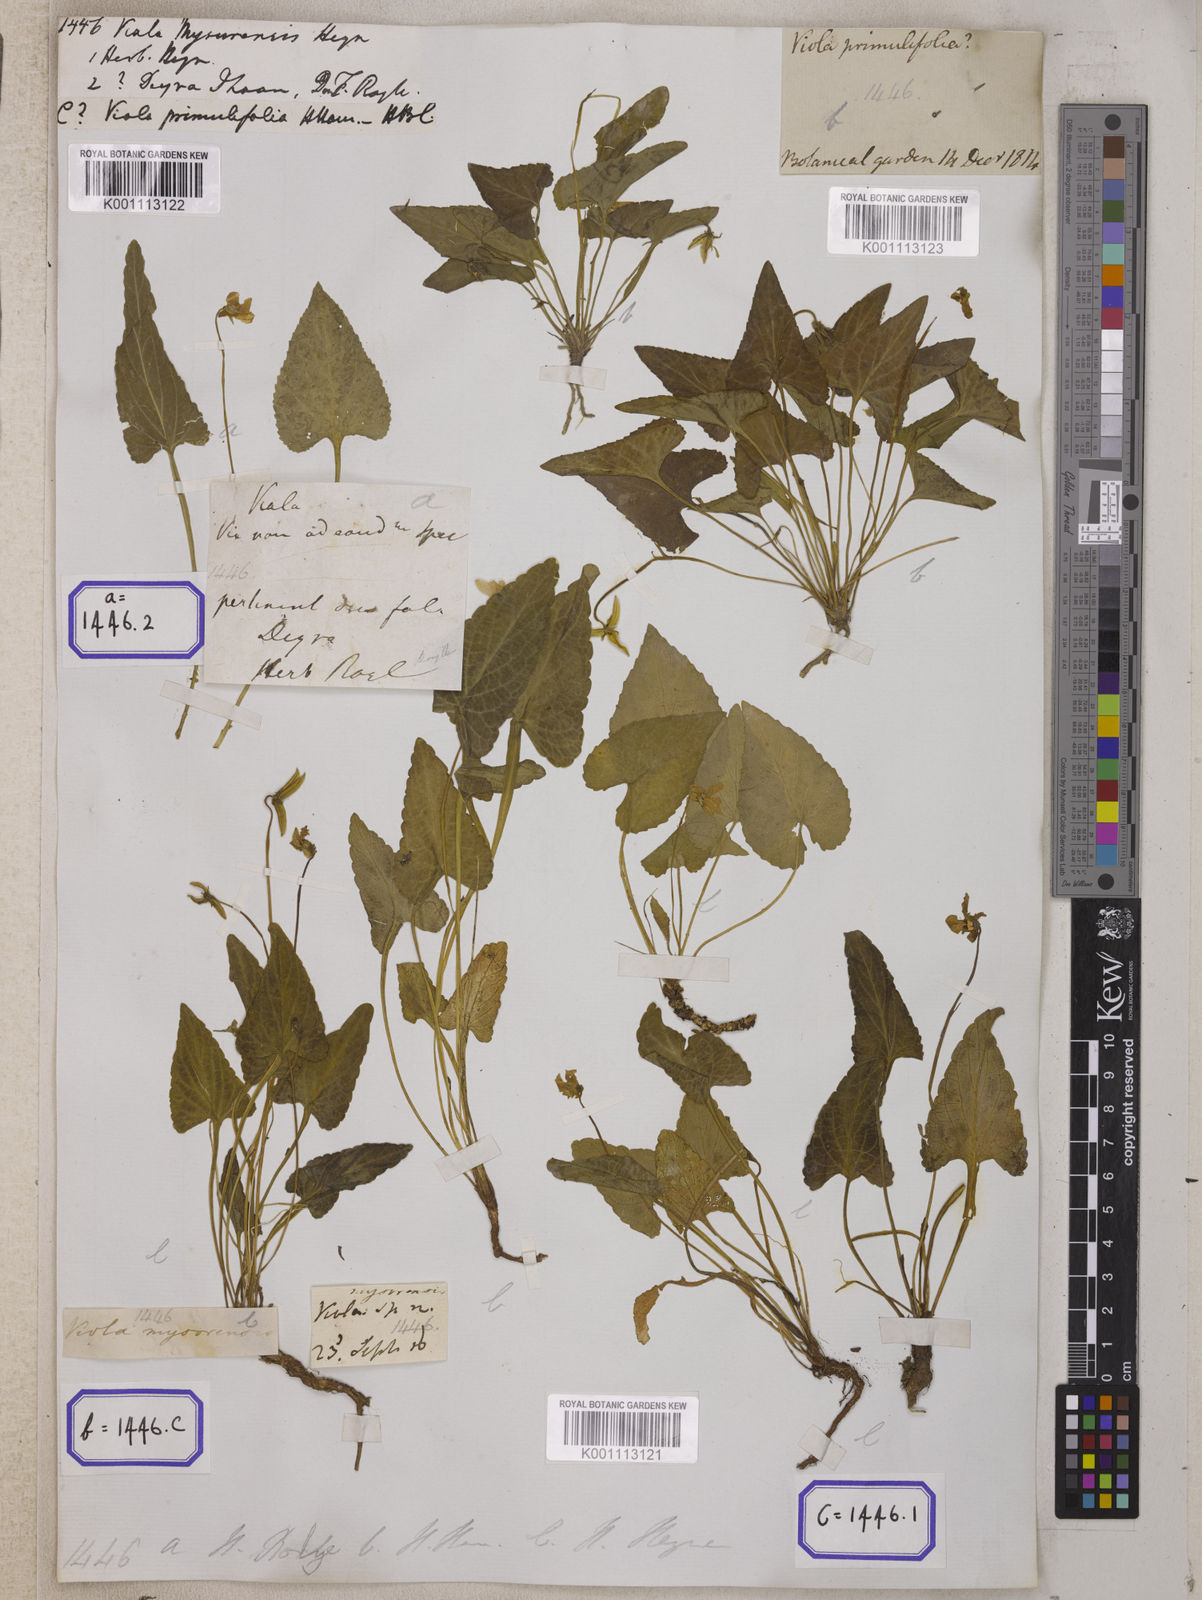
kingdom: Plantae
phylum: Tracheophyta
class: Magnoliopsida
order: Malpighiales
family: Violaceae
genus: Viola
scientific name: Viola
